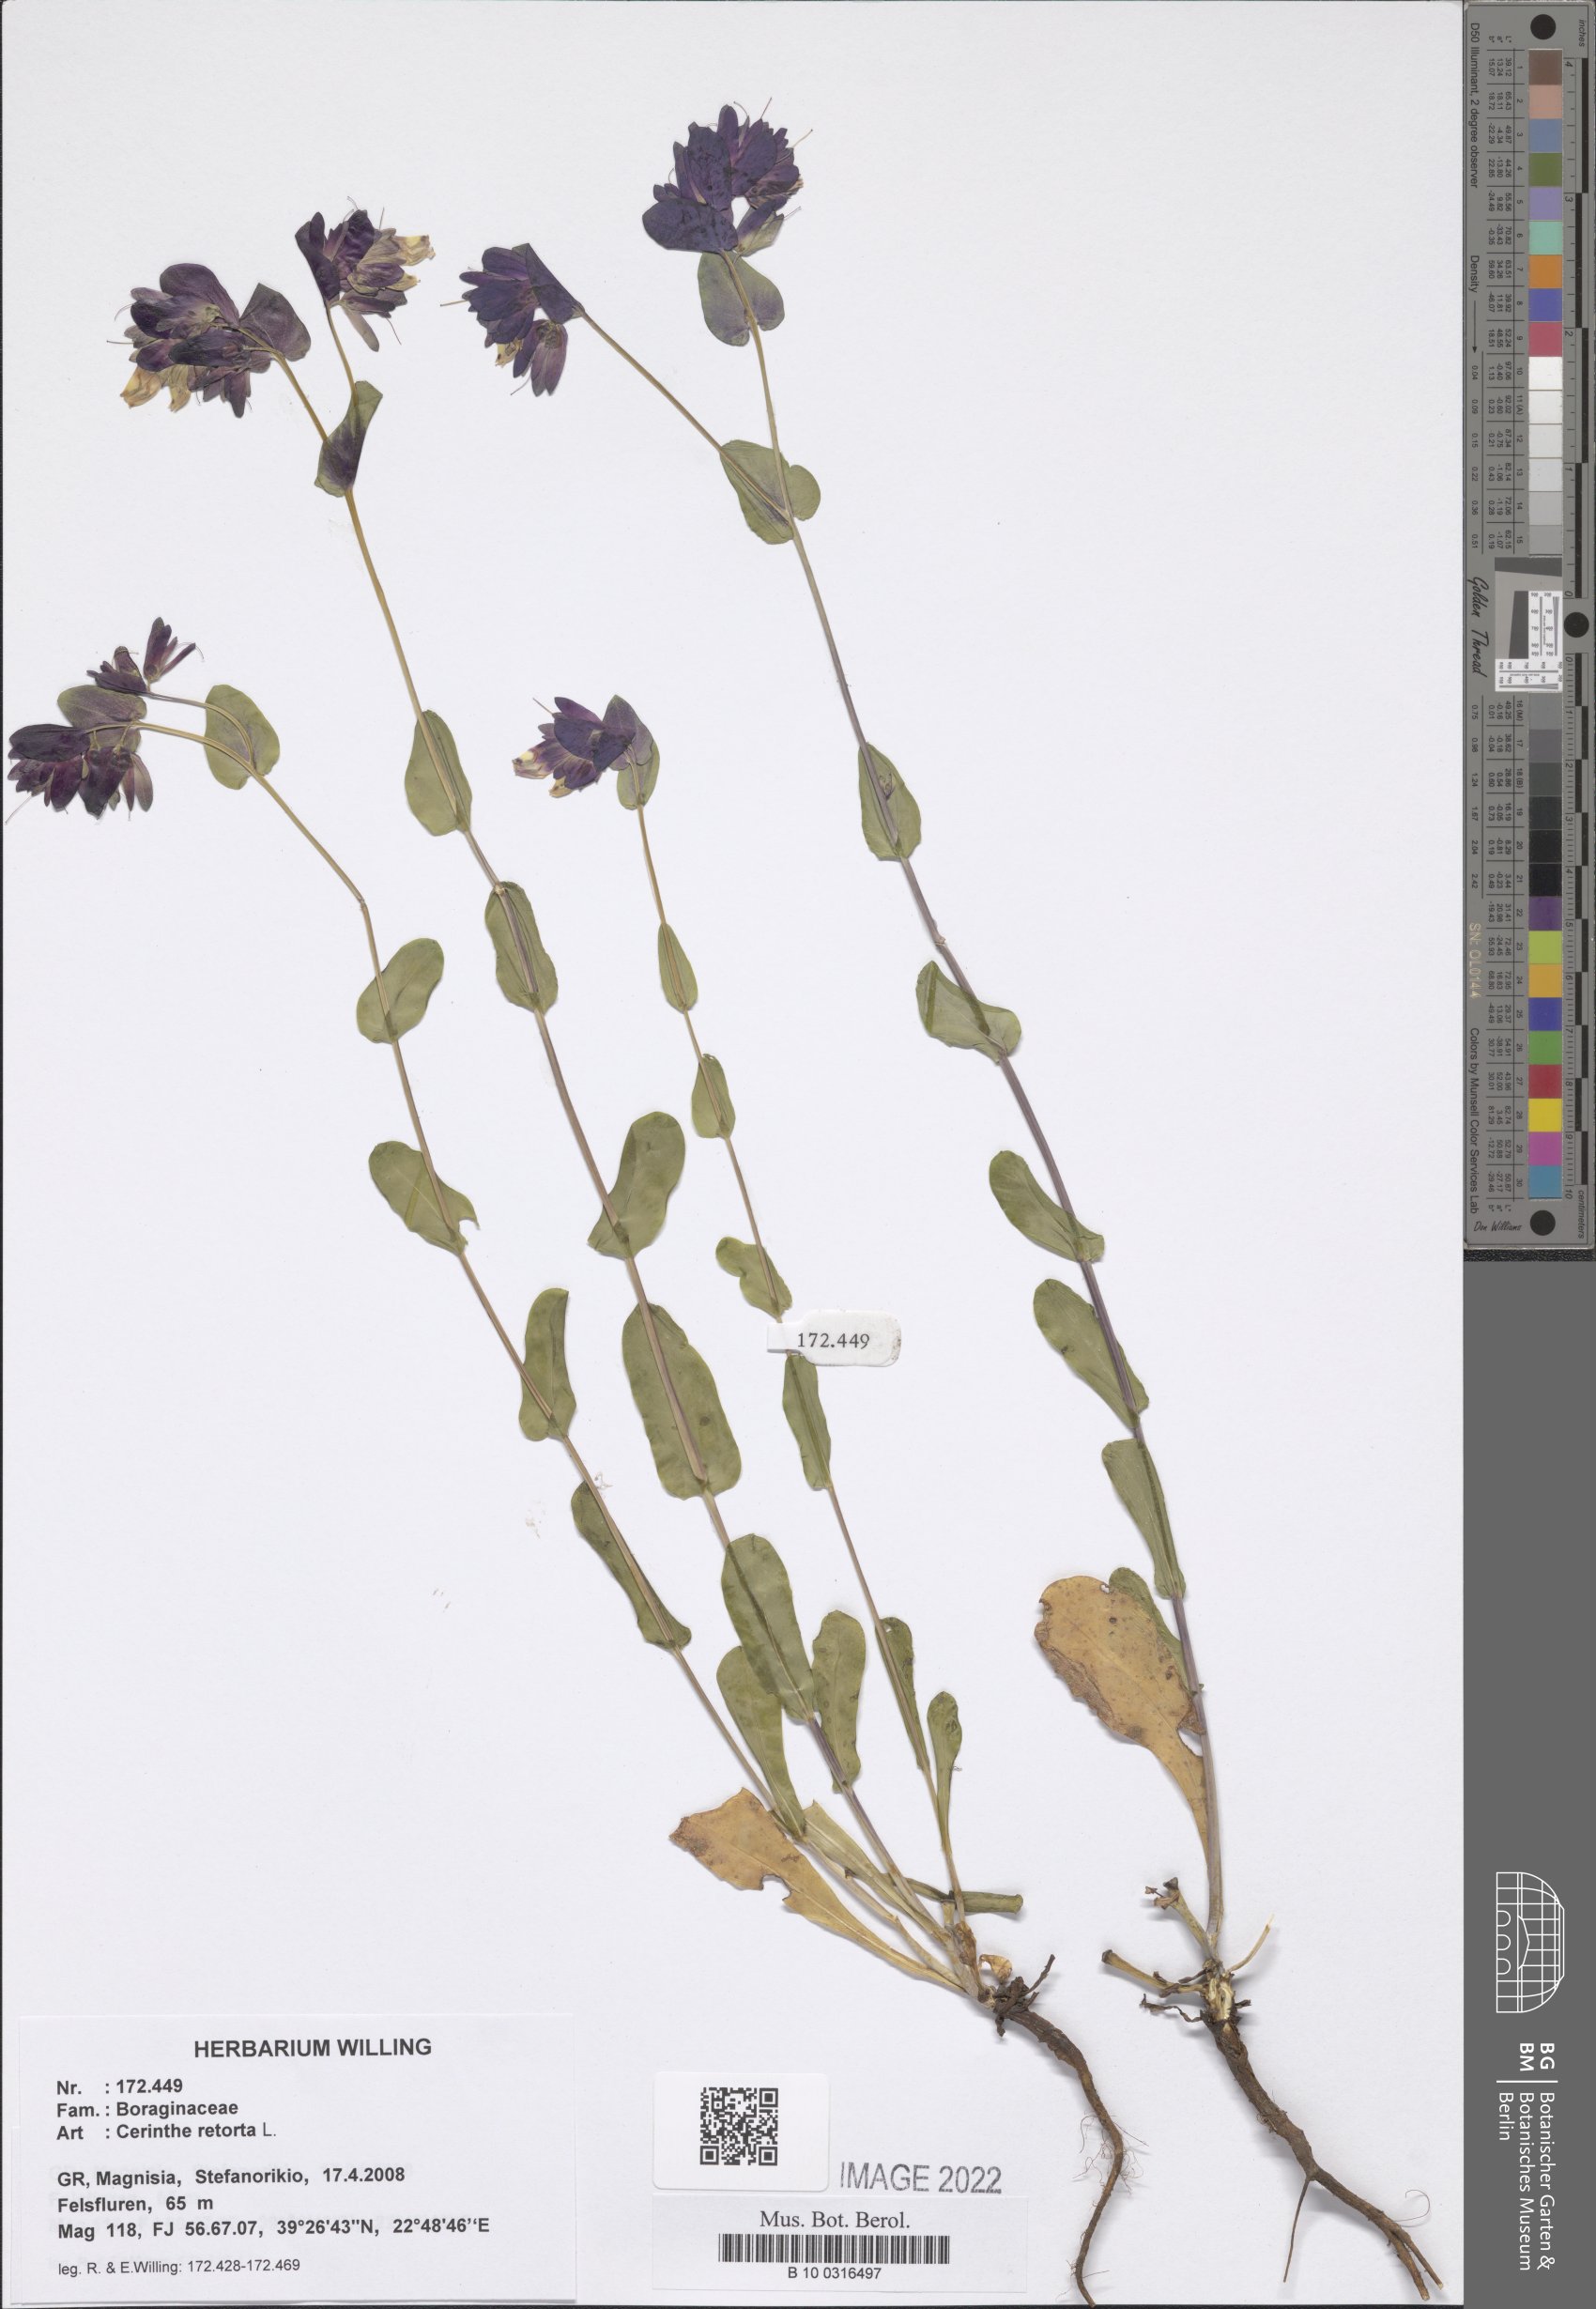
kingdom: Plantae
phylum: Tracheophyta
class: Magnoliopsida
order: Boraginales
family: Boraginaceae
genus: Cerinthe
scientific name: Cerinthe retorta
